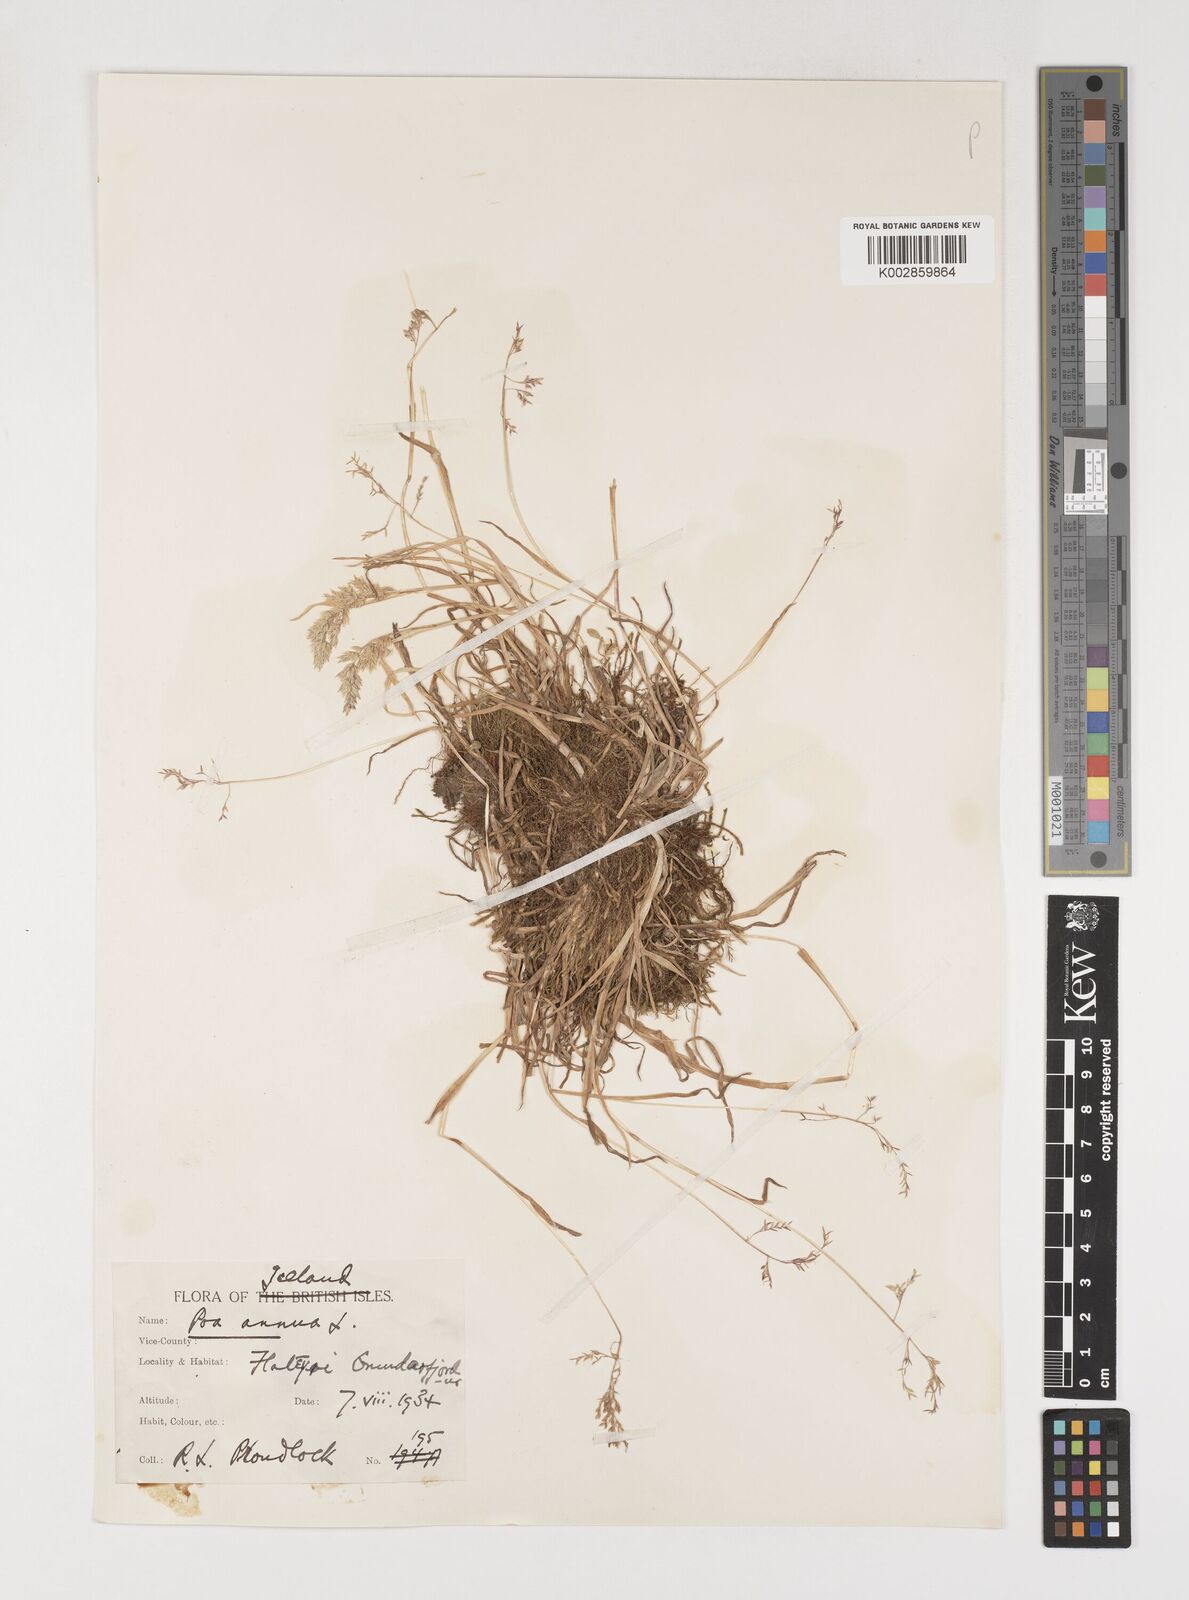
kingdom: Plantae
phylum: Tracheophyta
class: Liliopsida
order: Poales
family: Poaceae
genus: Poa
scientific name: Poa annua
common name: Annual bluegrass
